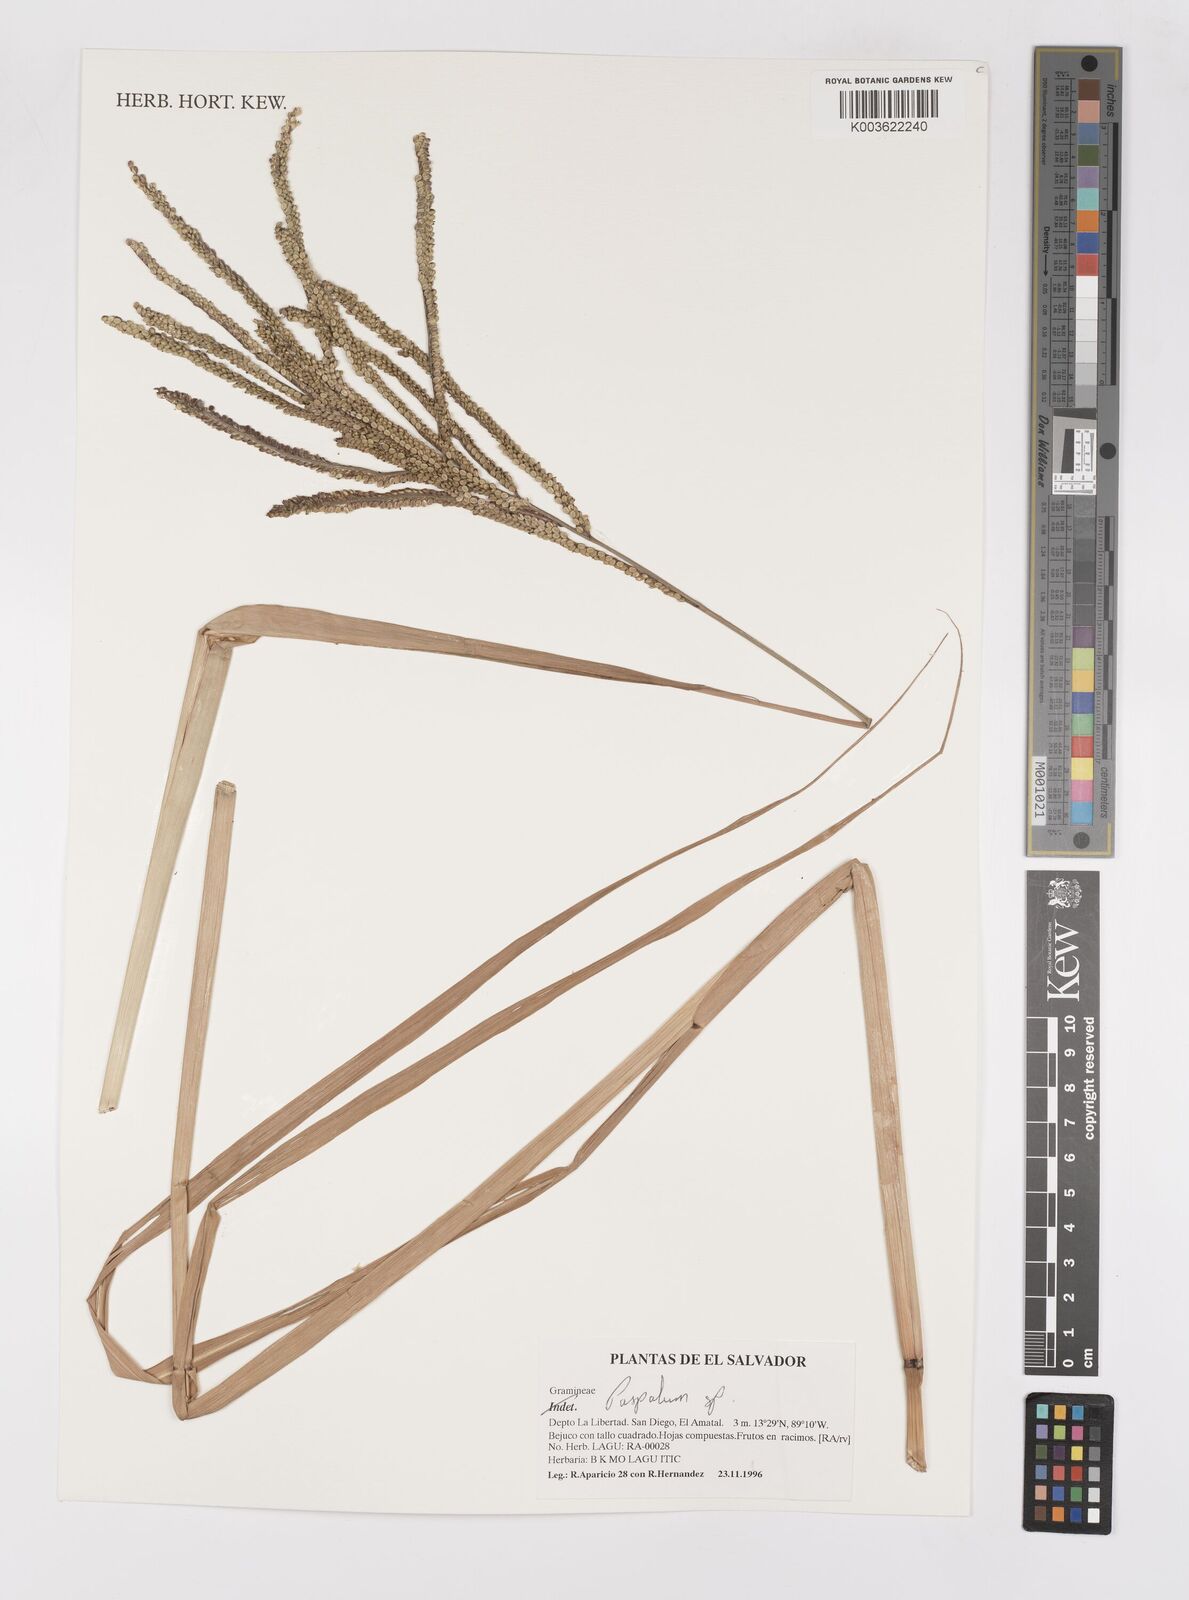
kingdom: Plantae
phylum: Tracheophyta
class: Liliopsida
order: Poales
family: Poaceae
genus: Paspalum
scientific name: Paspalum
